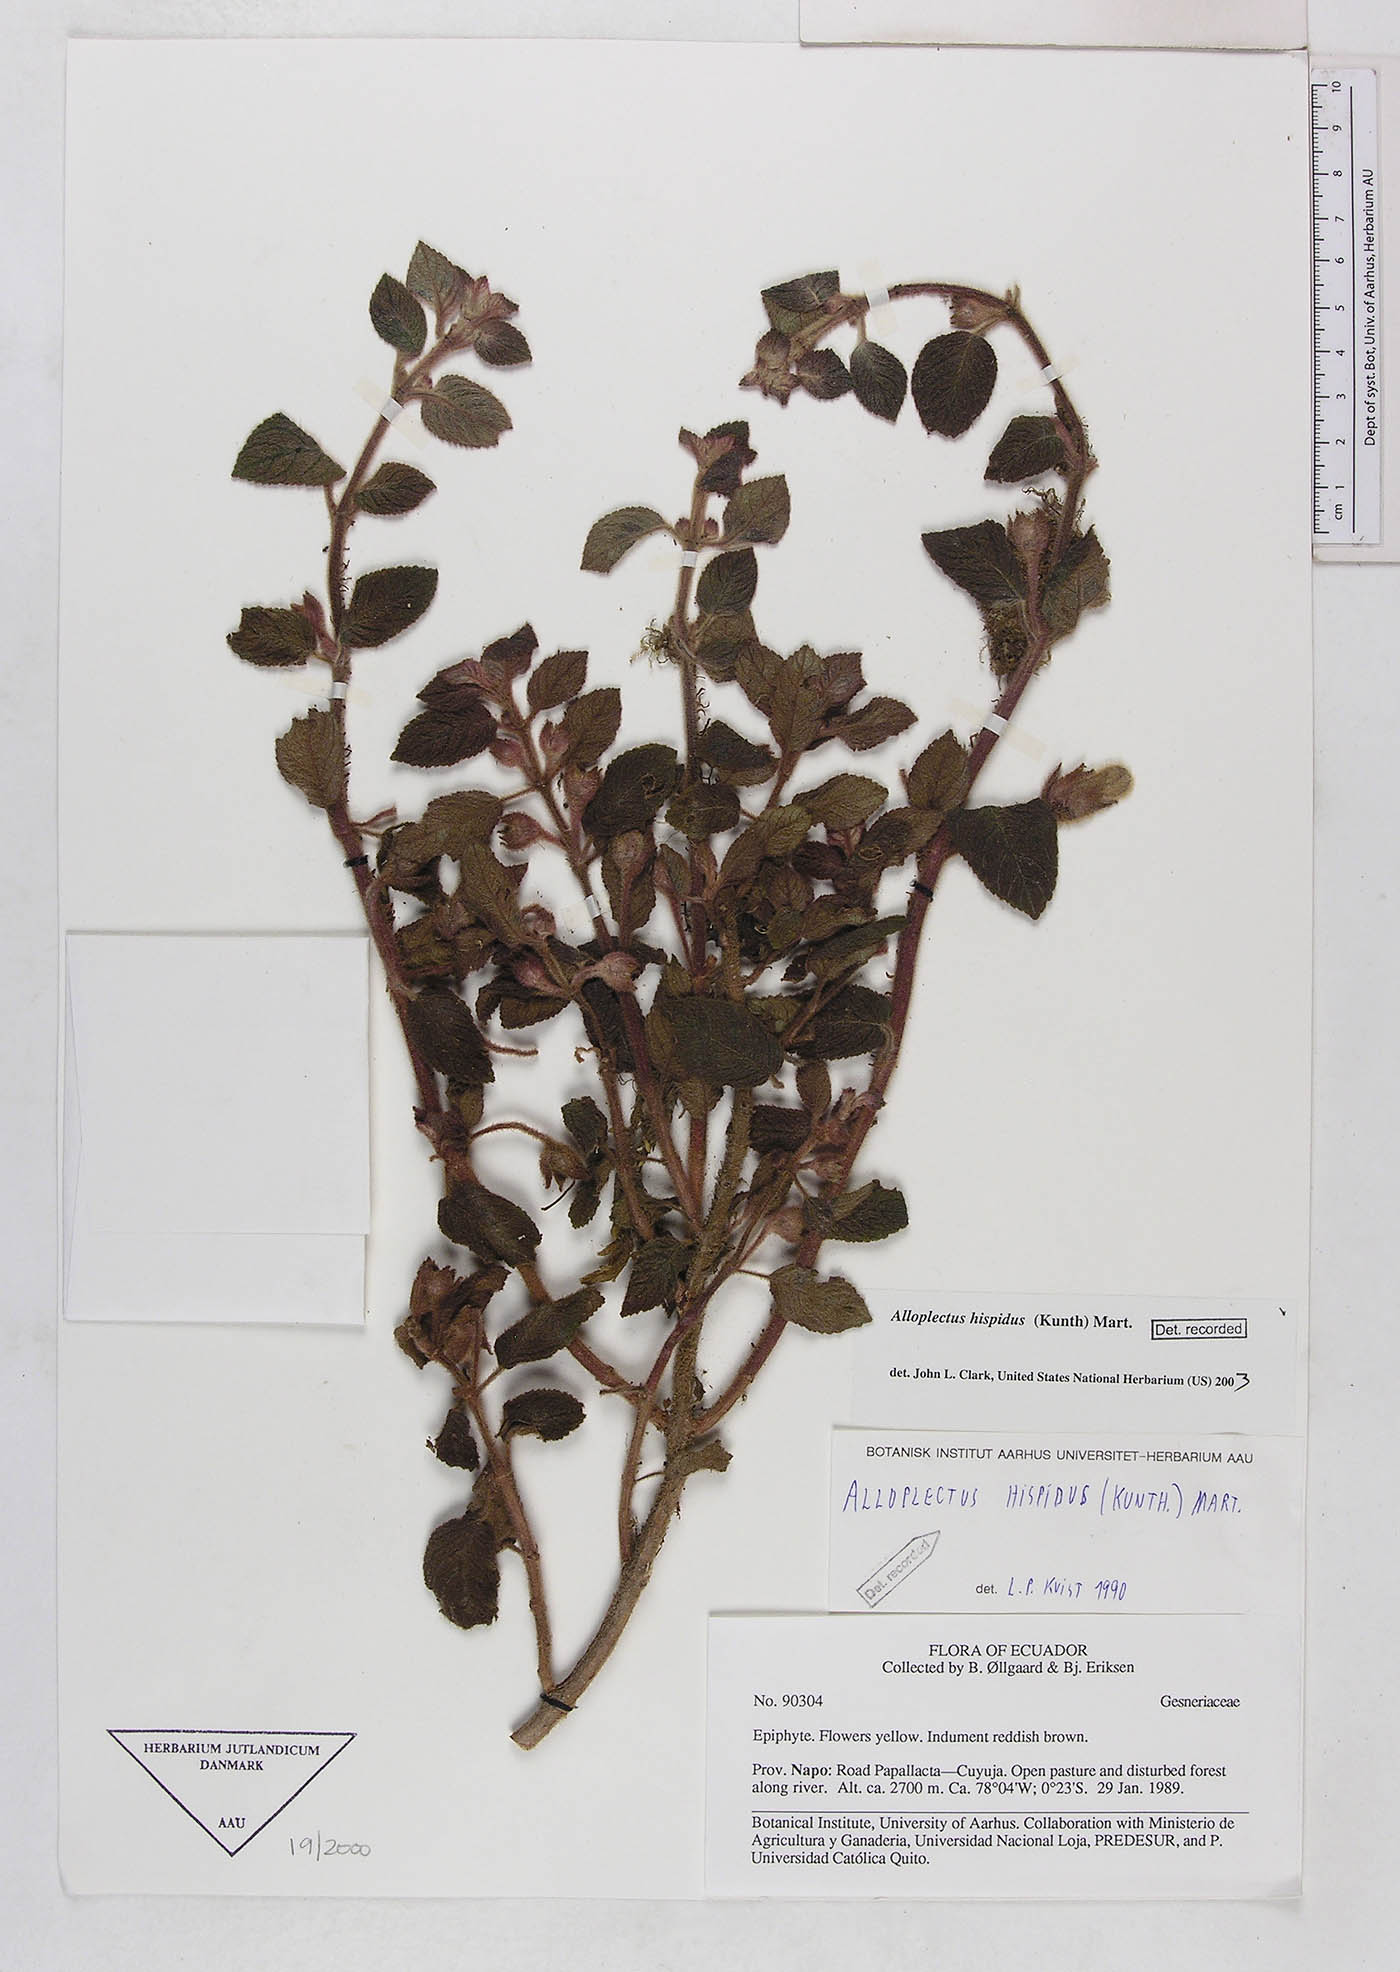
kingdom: Plantae
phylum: Tracheophyta
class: Magnoliopsida
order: Lamiales
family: Gesneriaceae
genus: Alloplectus
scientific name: Alloplectus hispidus
